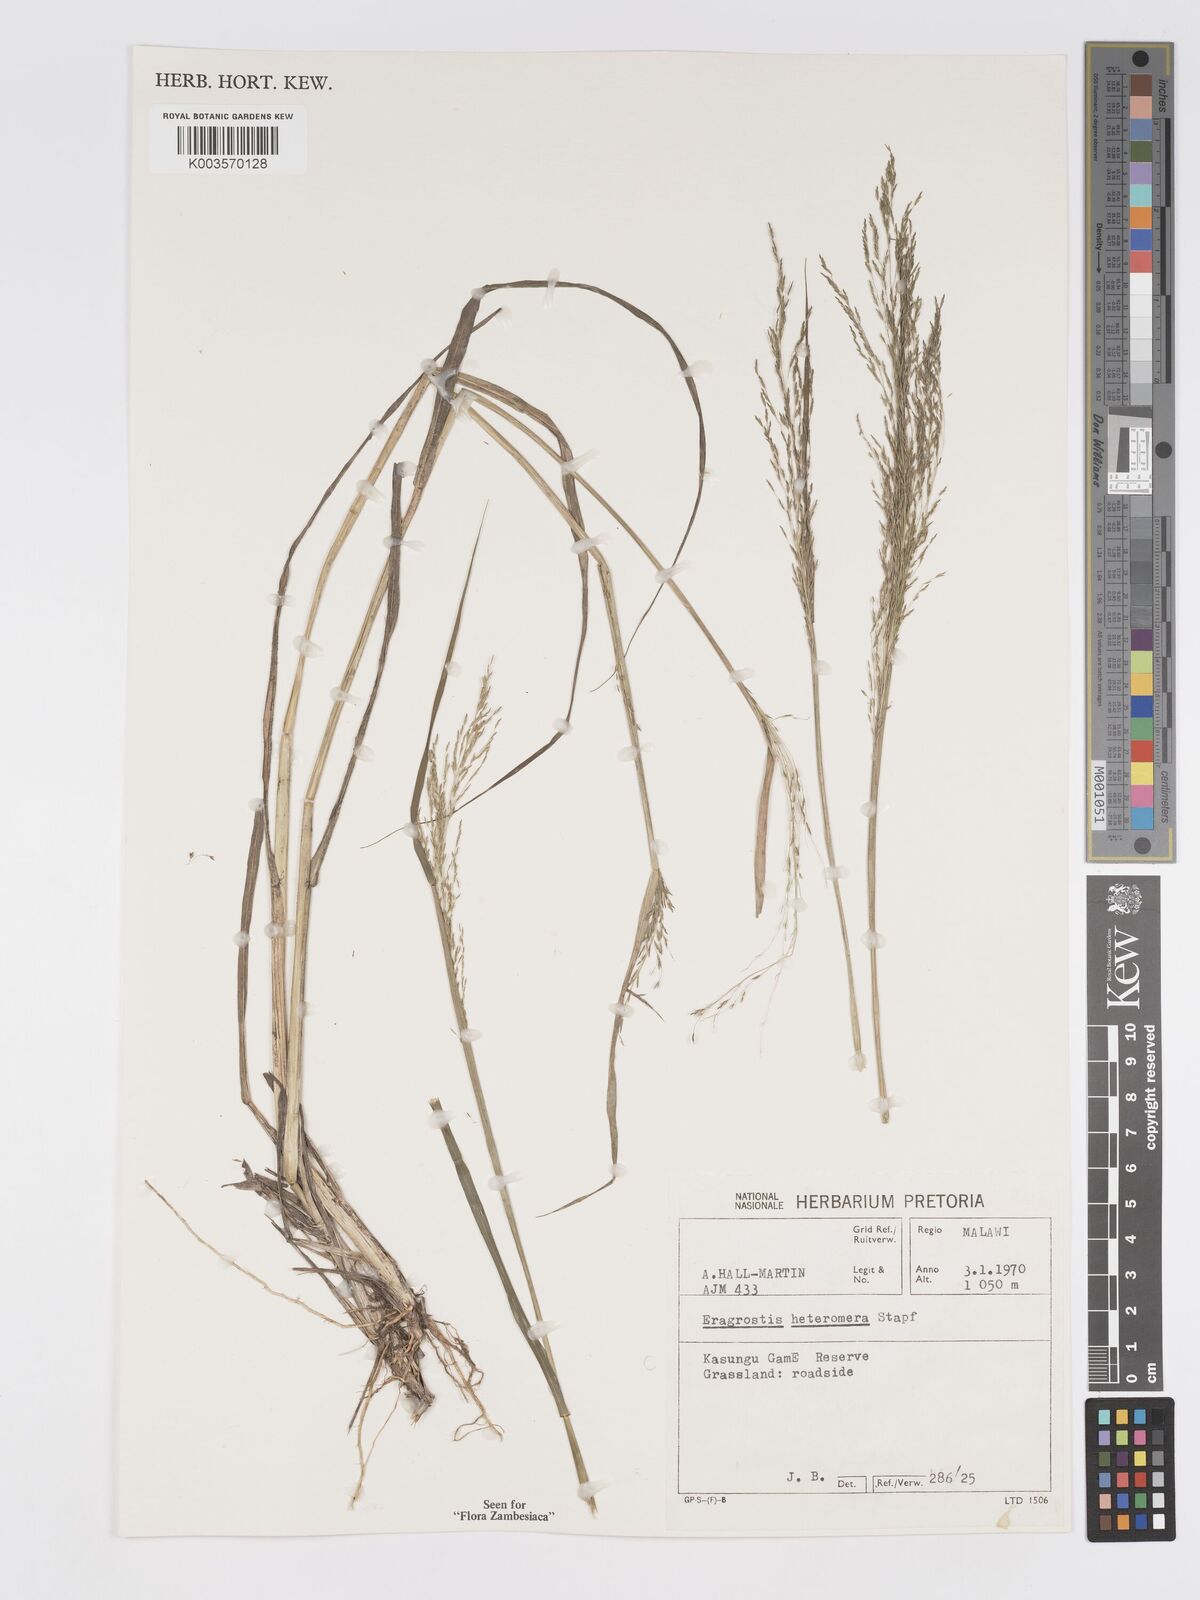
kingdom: Plantae
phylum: Tracheophyta
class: Liliopsida
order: Poales
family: Poaceae
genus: Eragrostis
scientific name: Eragrostis heteromera
